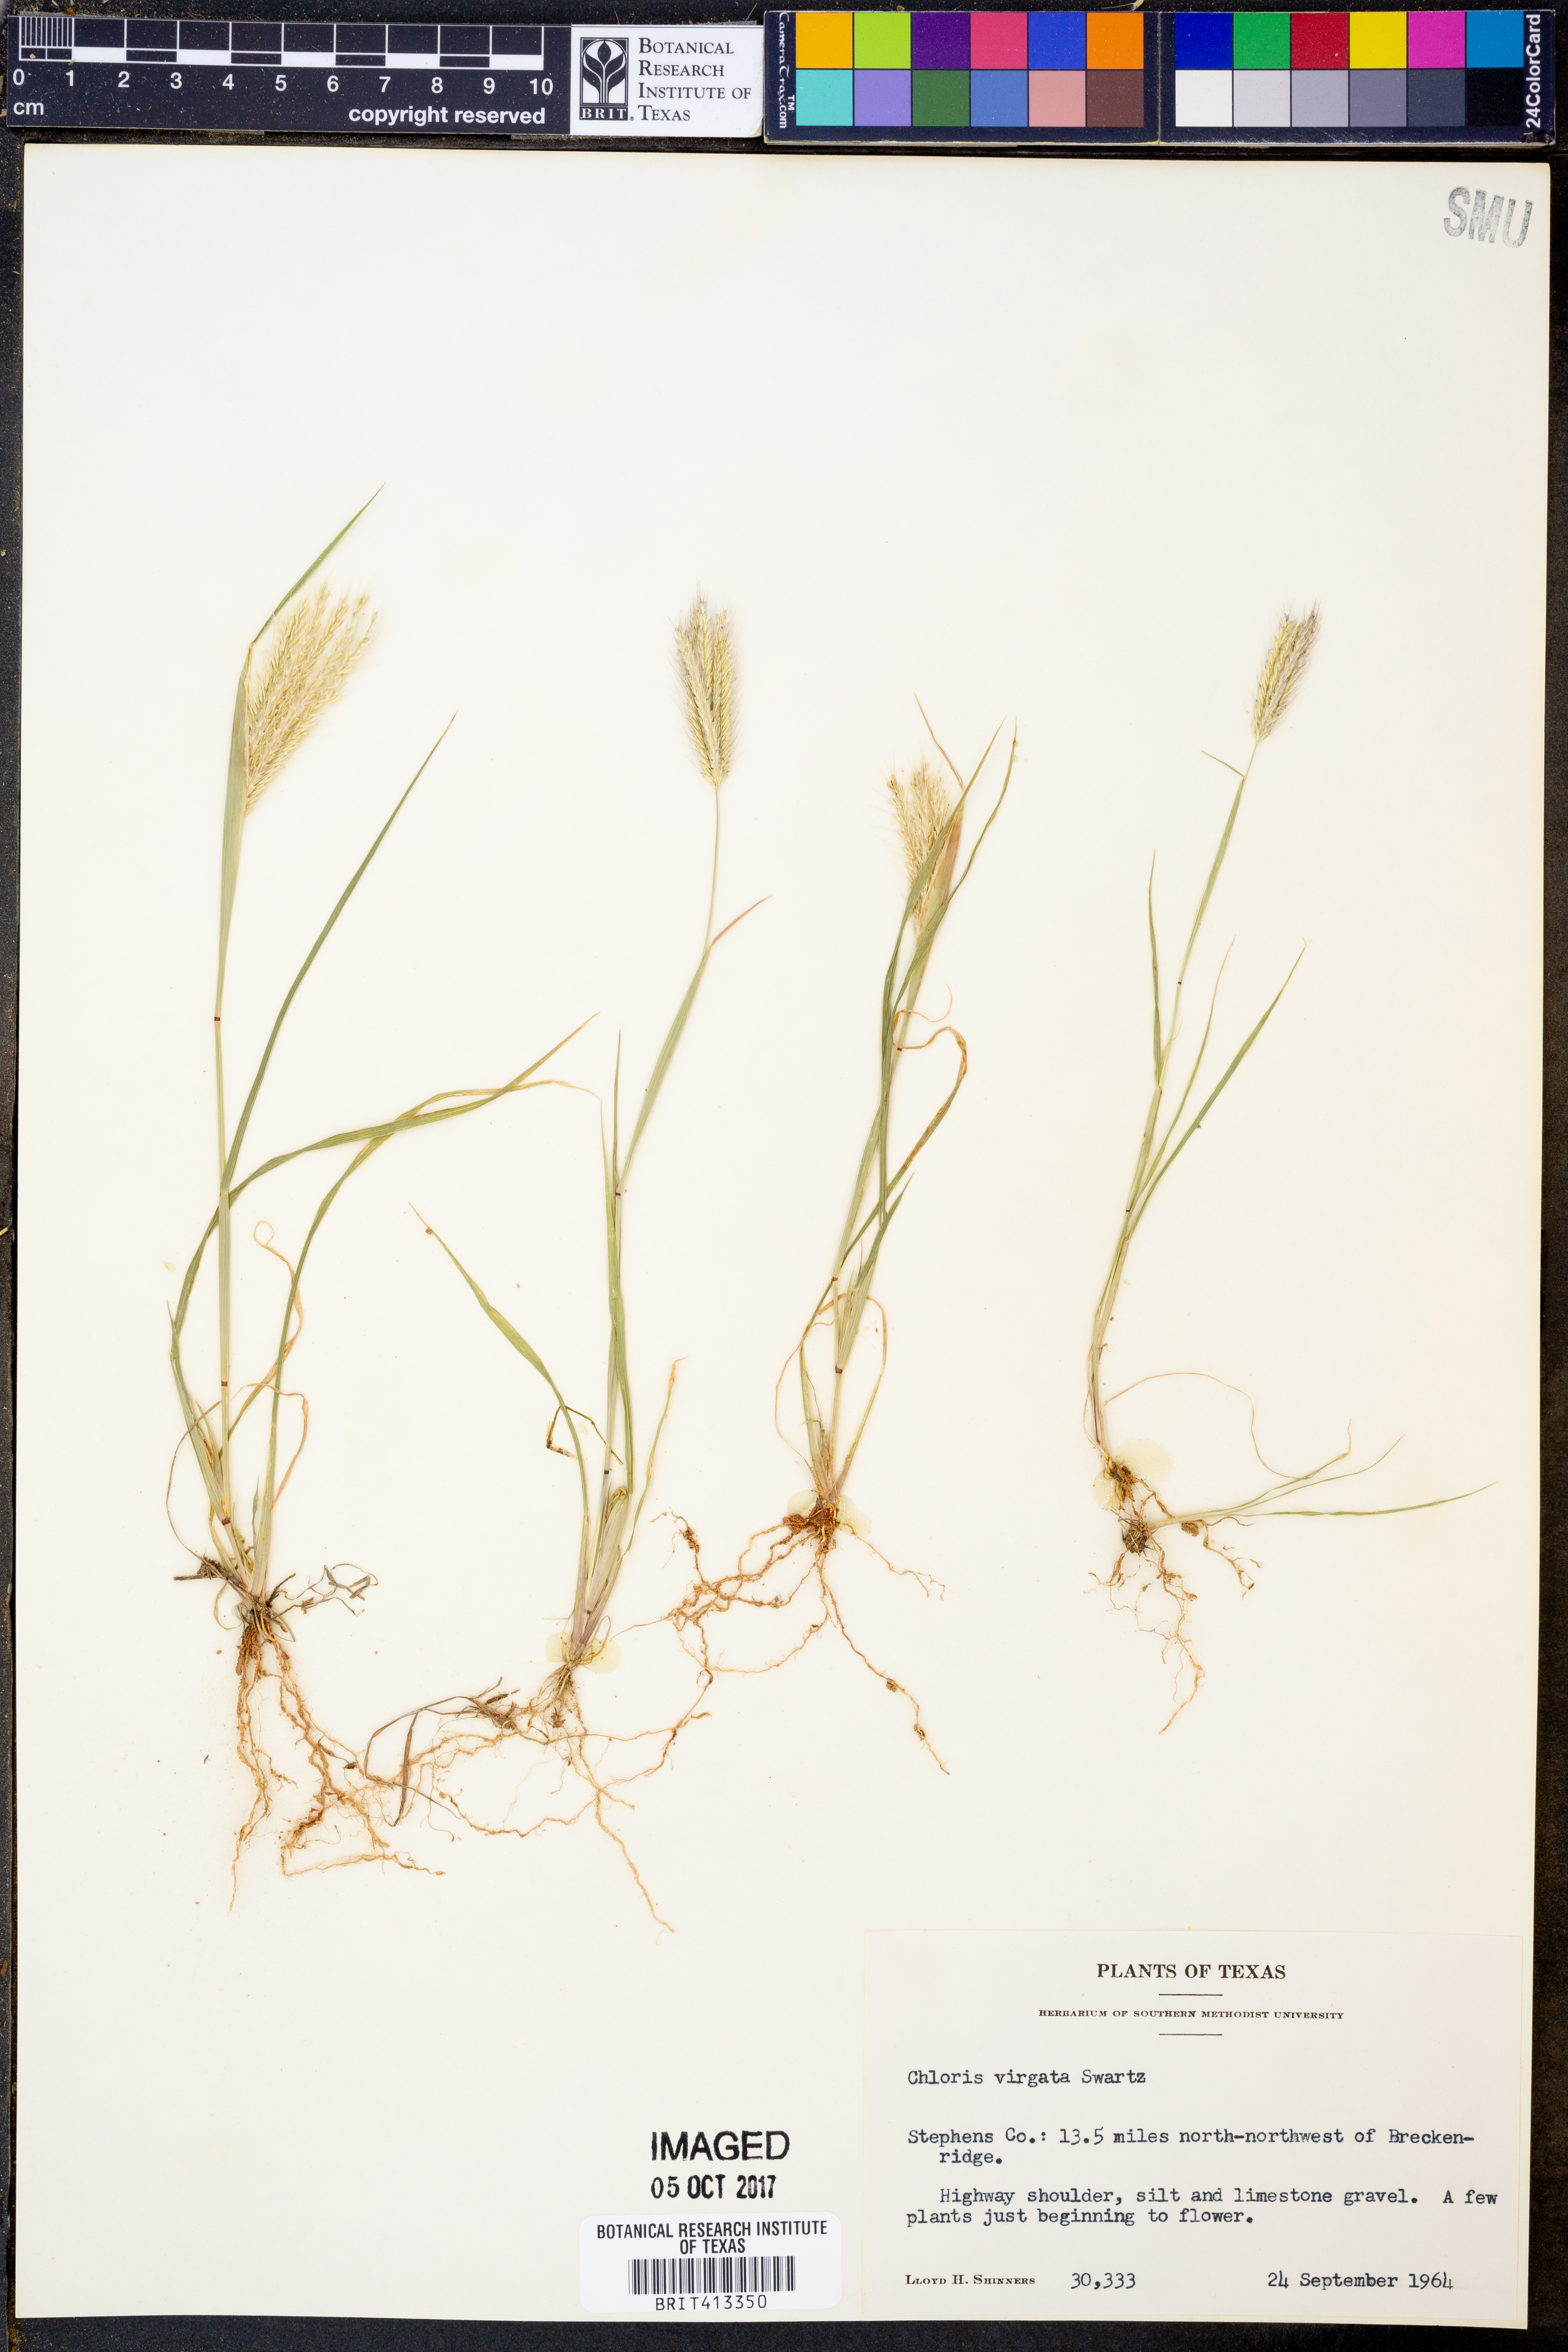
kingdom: Plantae
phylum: Tracheophyta
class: Liliopsida
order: Poales
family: Poaceae
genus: Chloris
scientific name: Chloris virgata
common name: Feathery rhodes-grass
